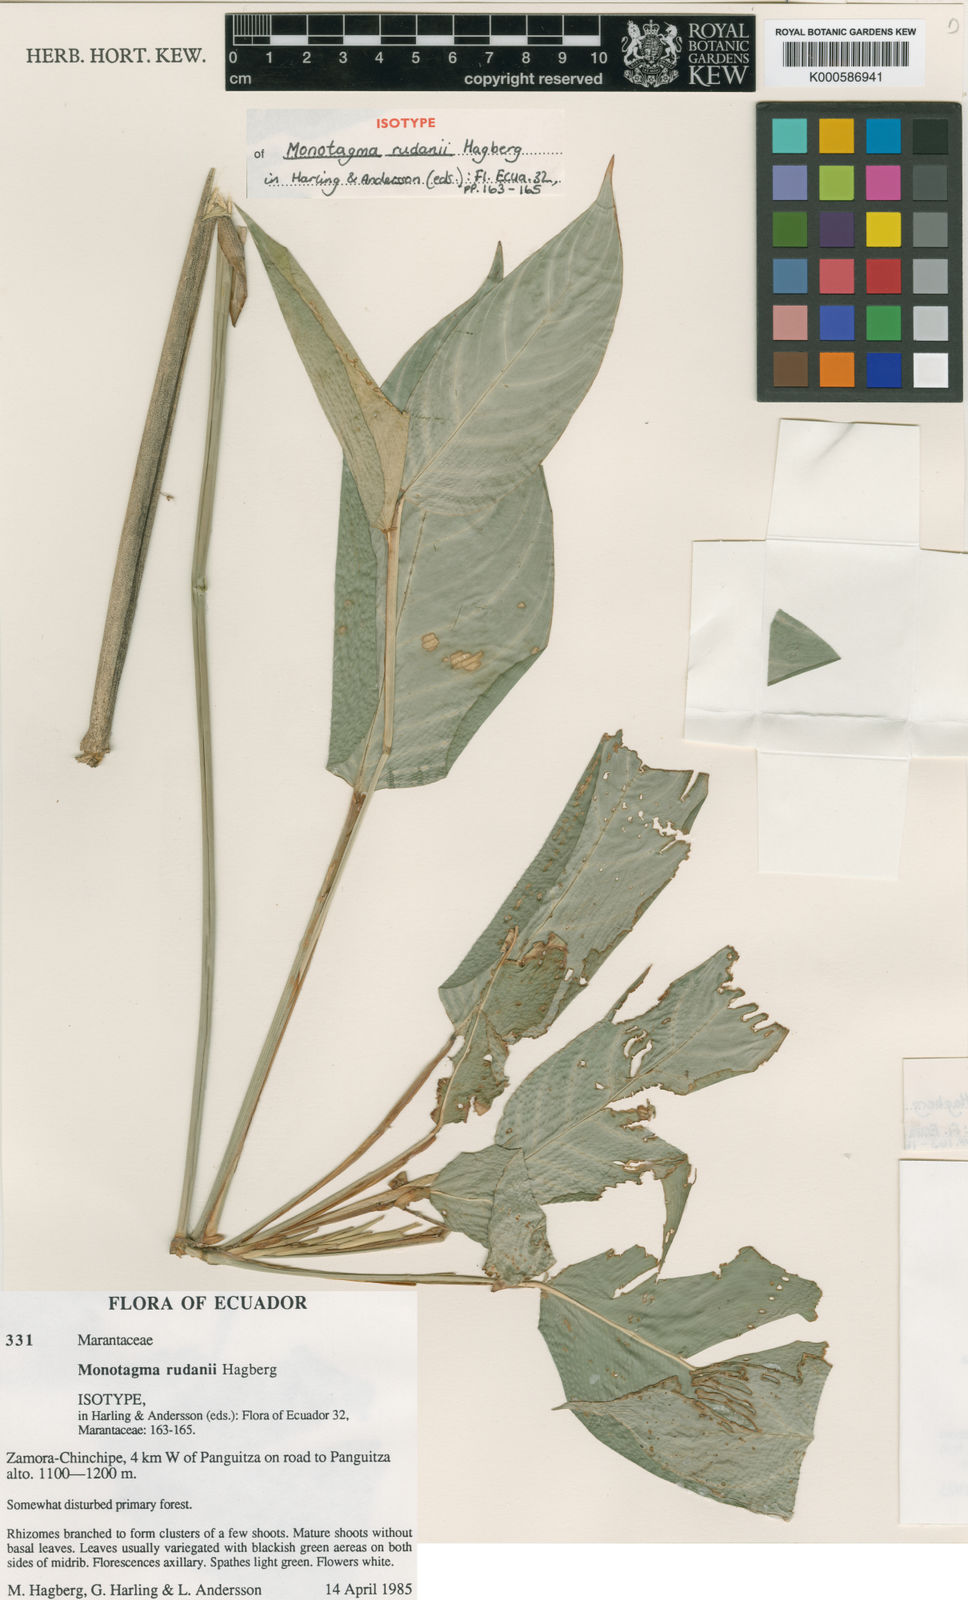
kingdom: Plantae
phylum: Tracheophyta
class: Liliopsida
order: Zingiberales
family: Marantaceae
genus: Monotagma
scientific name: Monotagma rudanii
